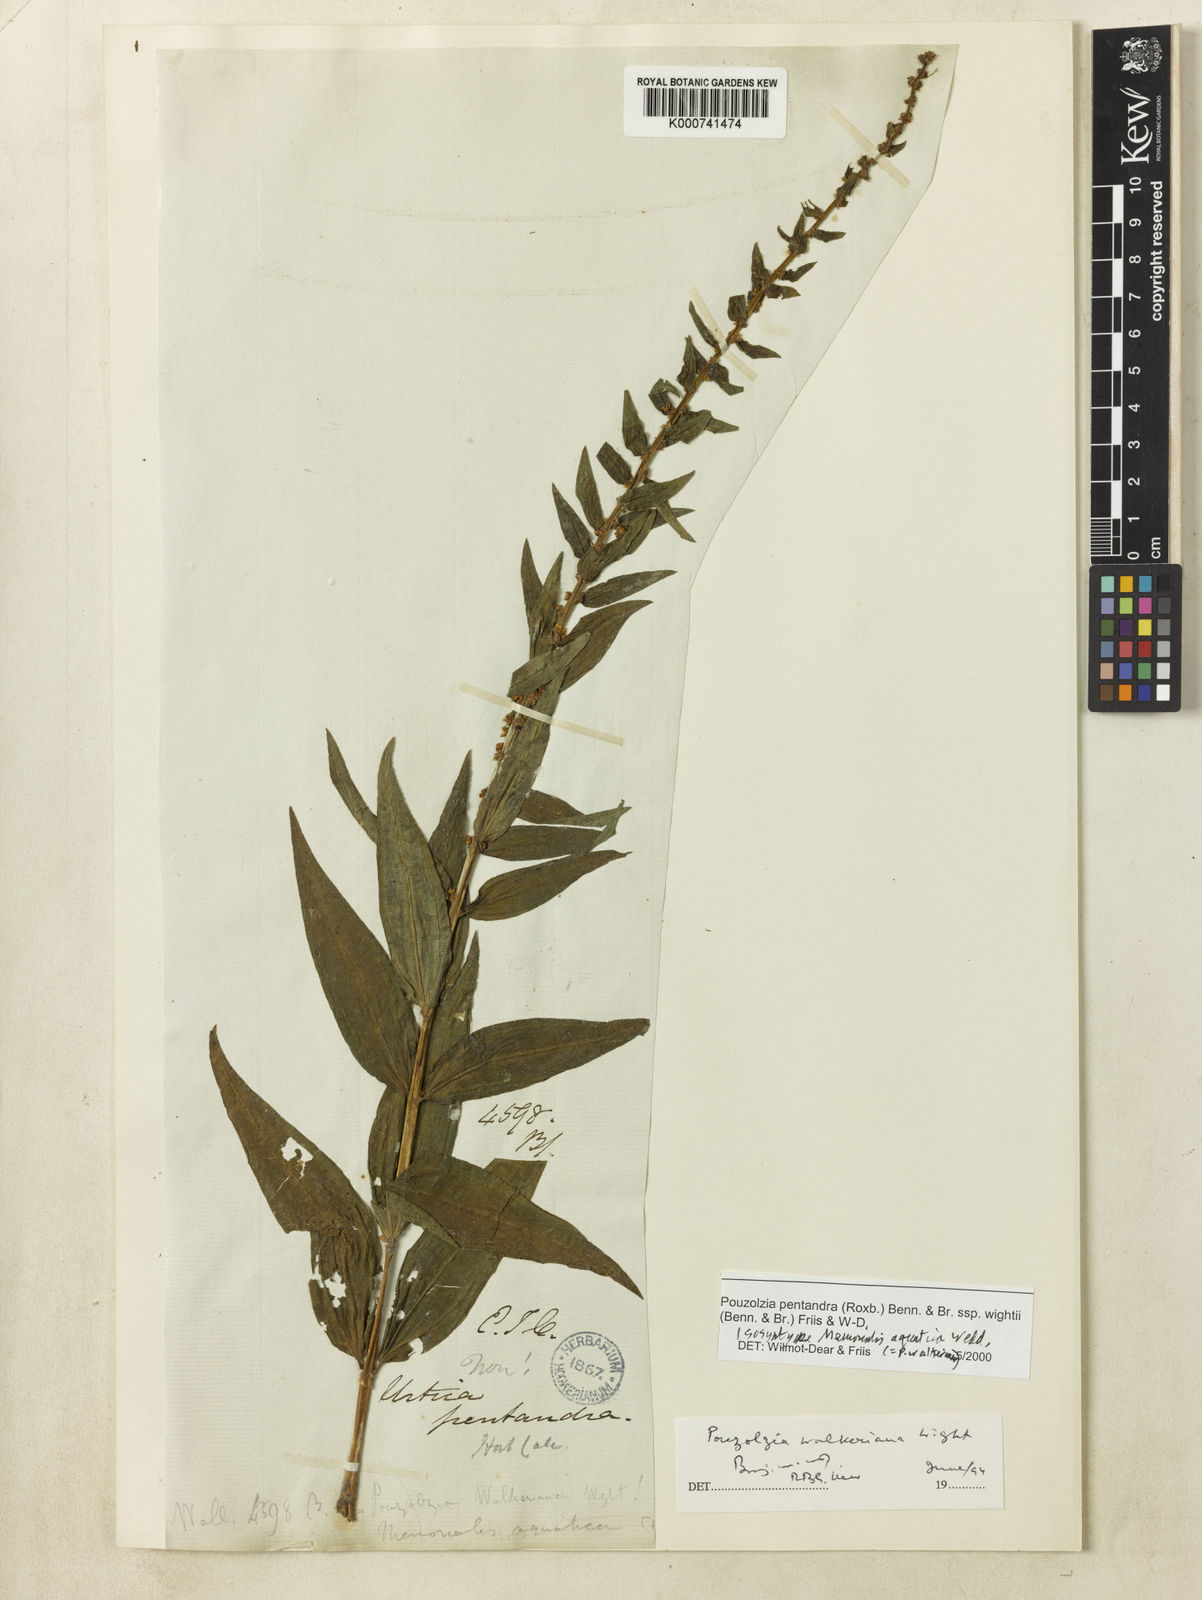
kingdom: Plantae
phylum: Tracheophyta
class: Magnoliopsida
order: Rosales
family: Urticaceae
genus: Gonostegia
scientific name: Gonostegia pentandra
